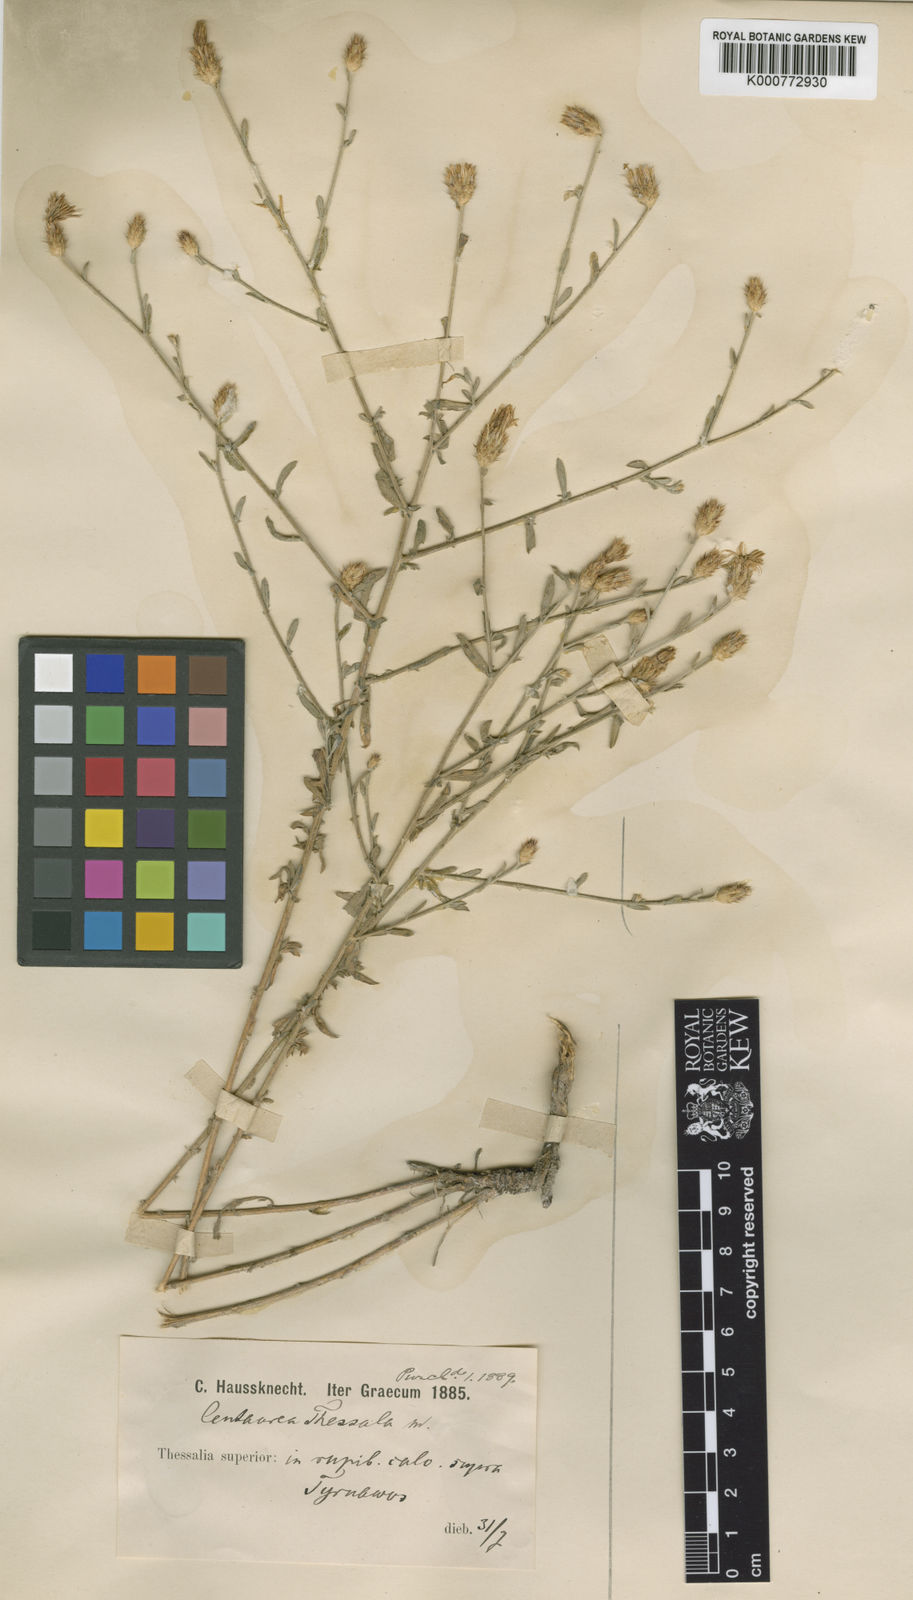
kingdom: Plantae
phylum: Tracheophyta
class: Magnoliopsida
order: Asterales
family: Asteraceae
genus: Centaurea
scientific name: Centaurea thessala
